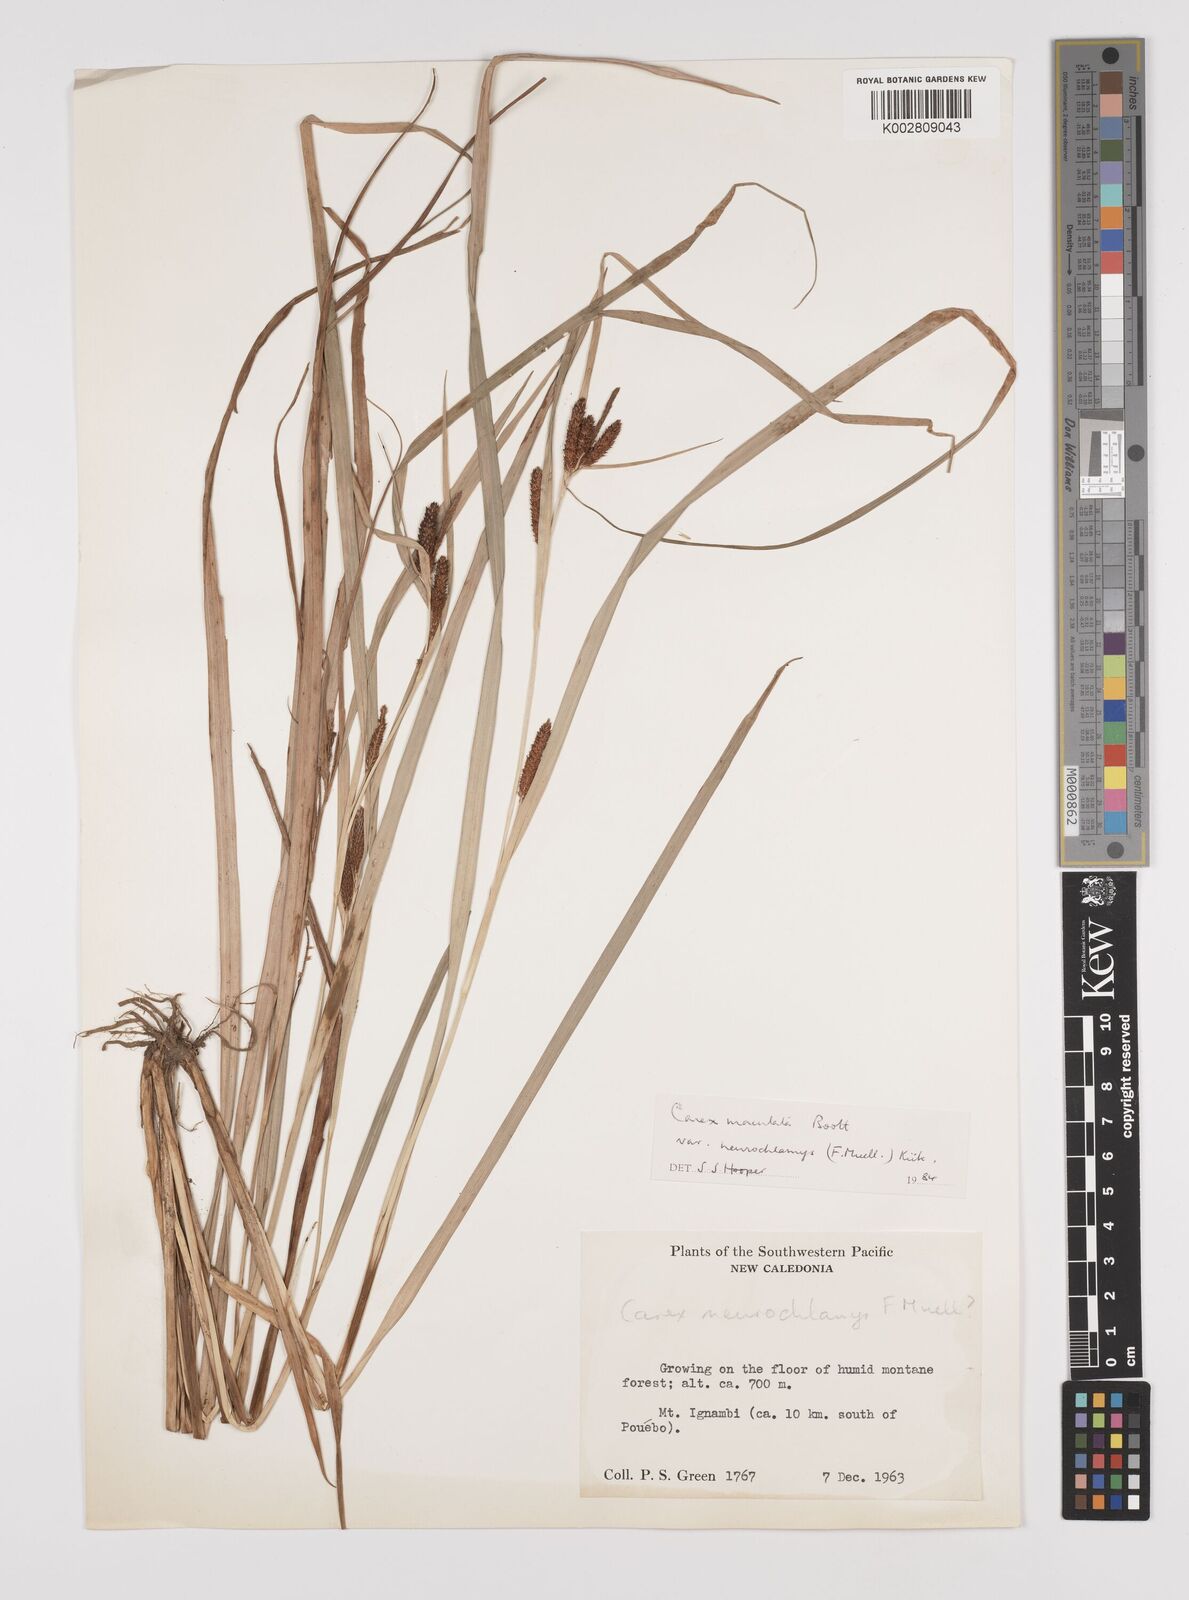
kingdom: Plantae
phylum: Tracheophyta
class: Liliopsida
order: Poales
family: Cyperaceae
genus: Carex
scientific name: Carex maculata
